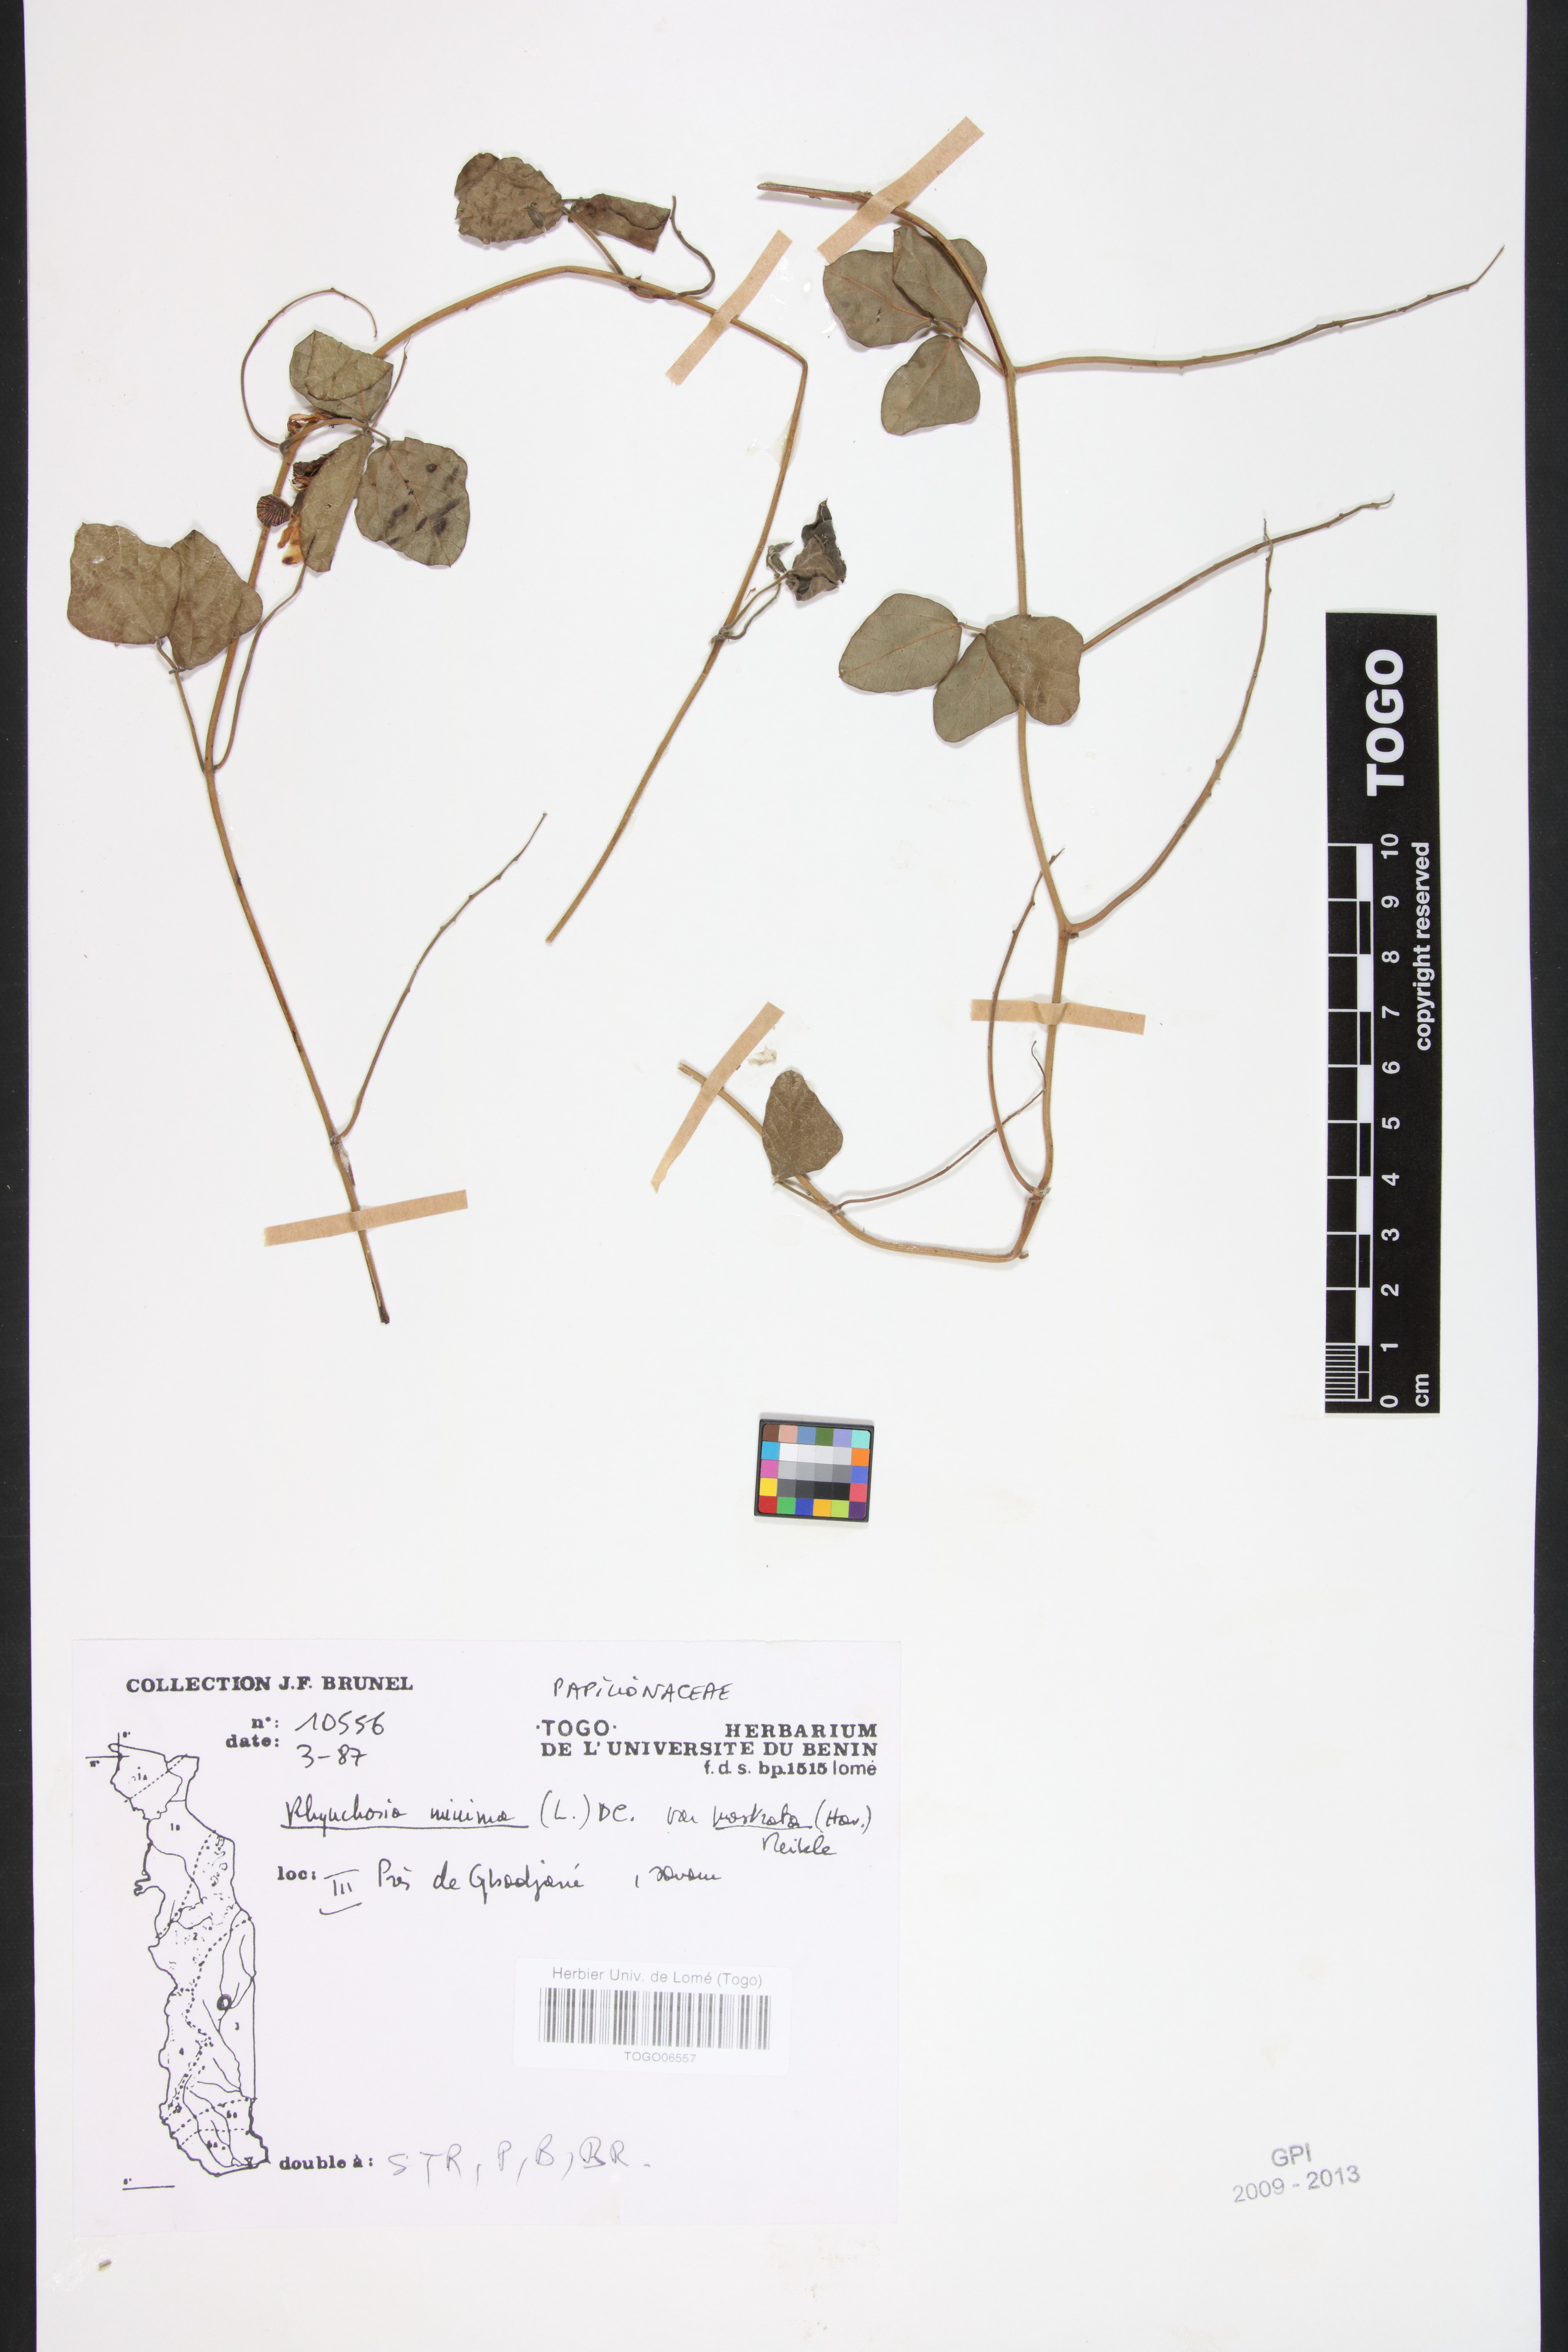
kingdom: Plantae
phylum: Tracheophyta
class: Magnoliopsida
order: Fabales
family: Fabaceae
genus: Rhynchosia
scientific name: Rhynchosia minima
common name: Least snoutbean
